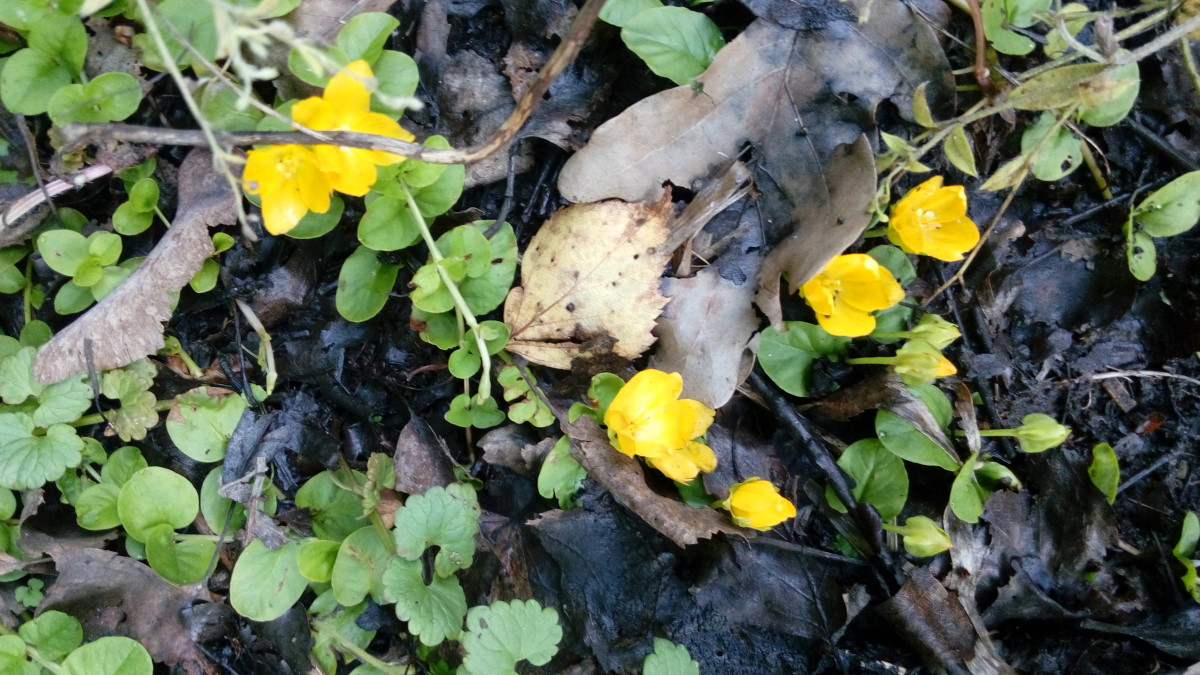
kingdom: Plantae
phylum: Tracheophyta
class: Magnoliopsida
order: Ericales
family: Primulaceae
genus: Lysimachia
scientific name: Lysimachia nummularia
